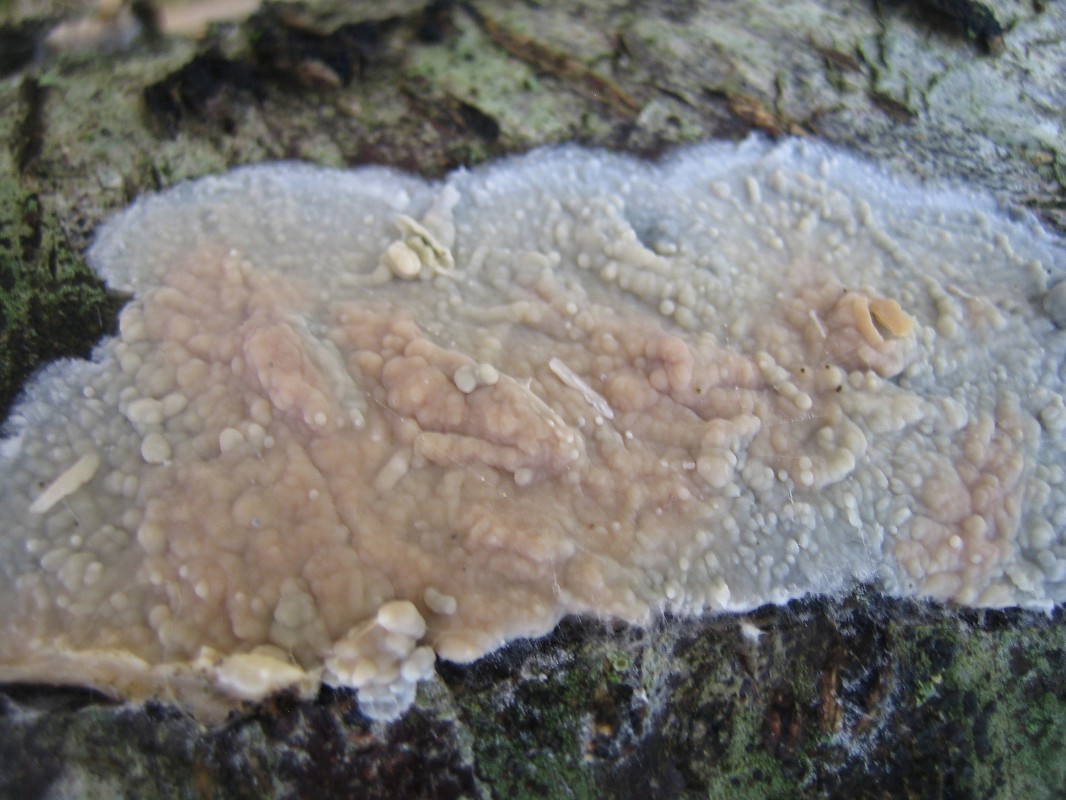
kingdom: Fungi
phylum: Basidiomycota
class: Agaricomycetes
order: Agaricales
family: Radulomycetaceae
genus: Radulomyces
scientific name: Radulomyces confluens
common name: glat naftalinskind
